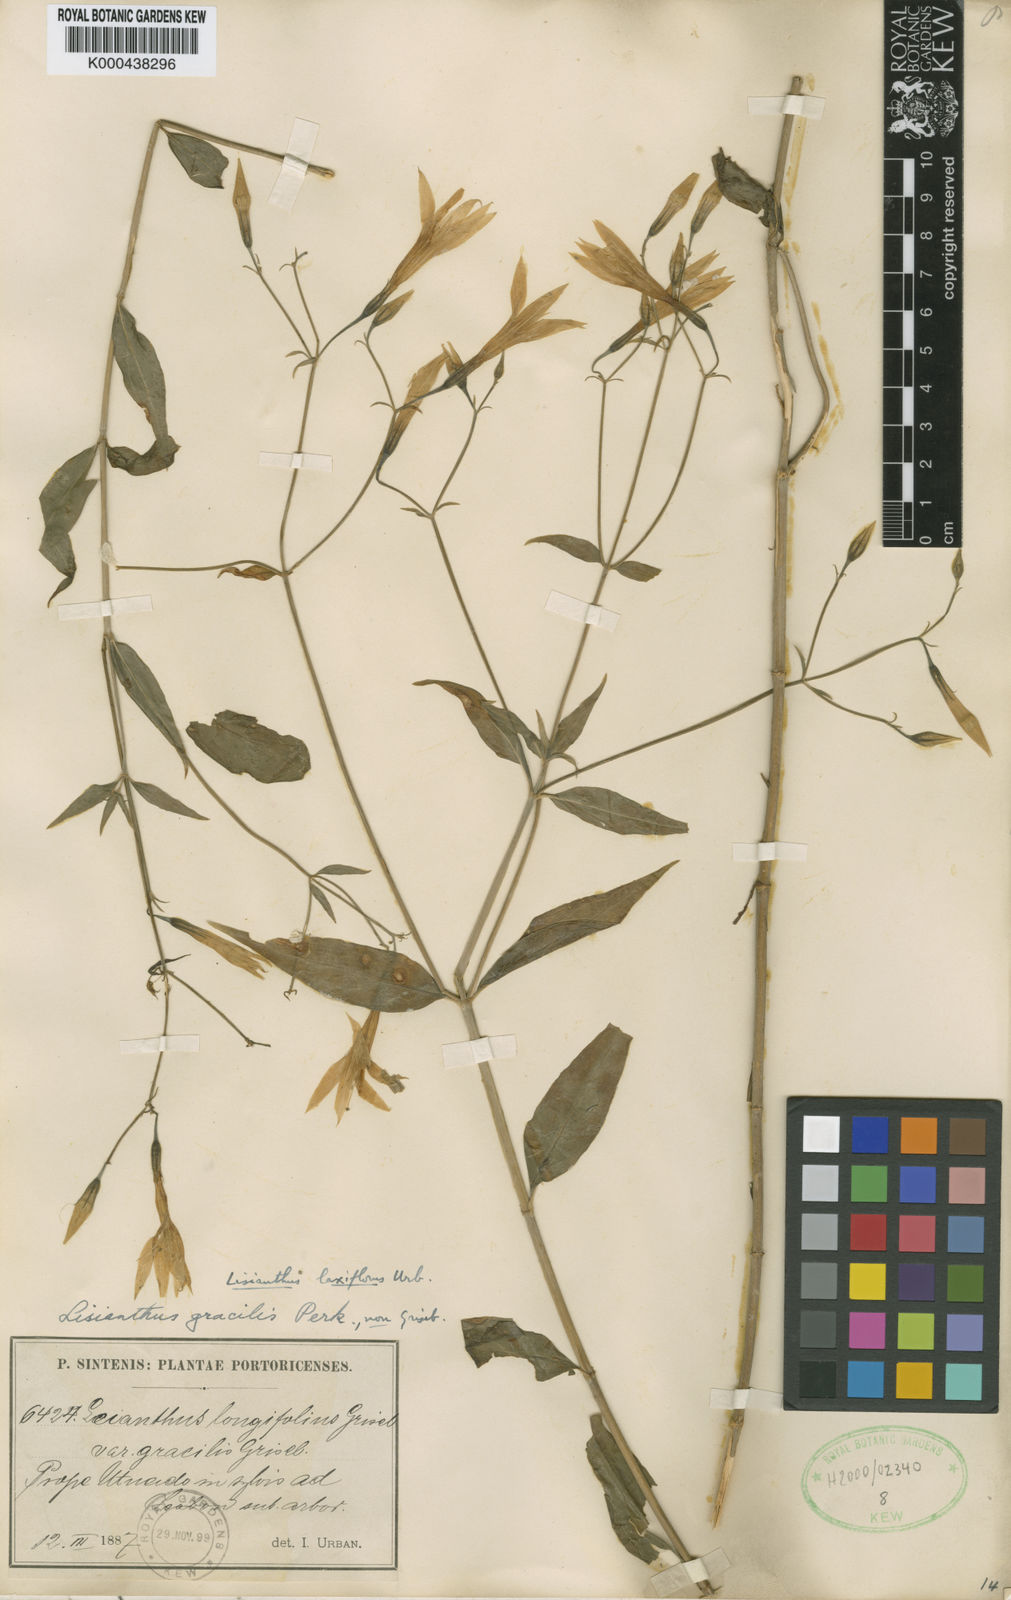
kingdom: Plantae
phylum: Tracheophyta
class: Magnoliopsida
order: Gentianales
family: Gentianaceae
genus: Lisianthius
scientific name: Lisianthius troyanus
